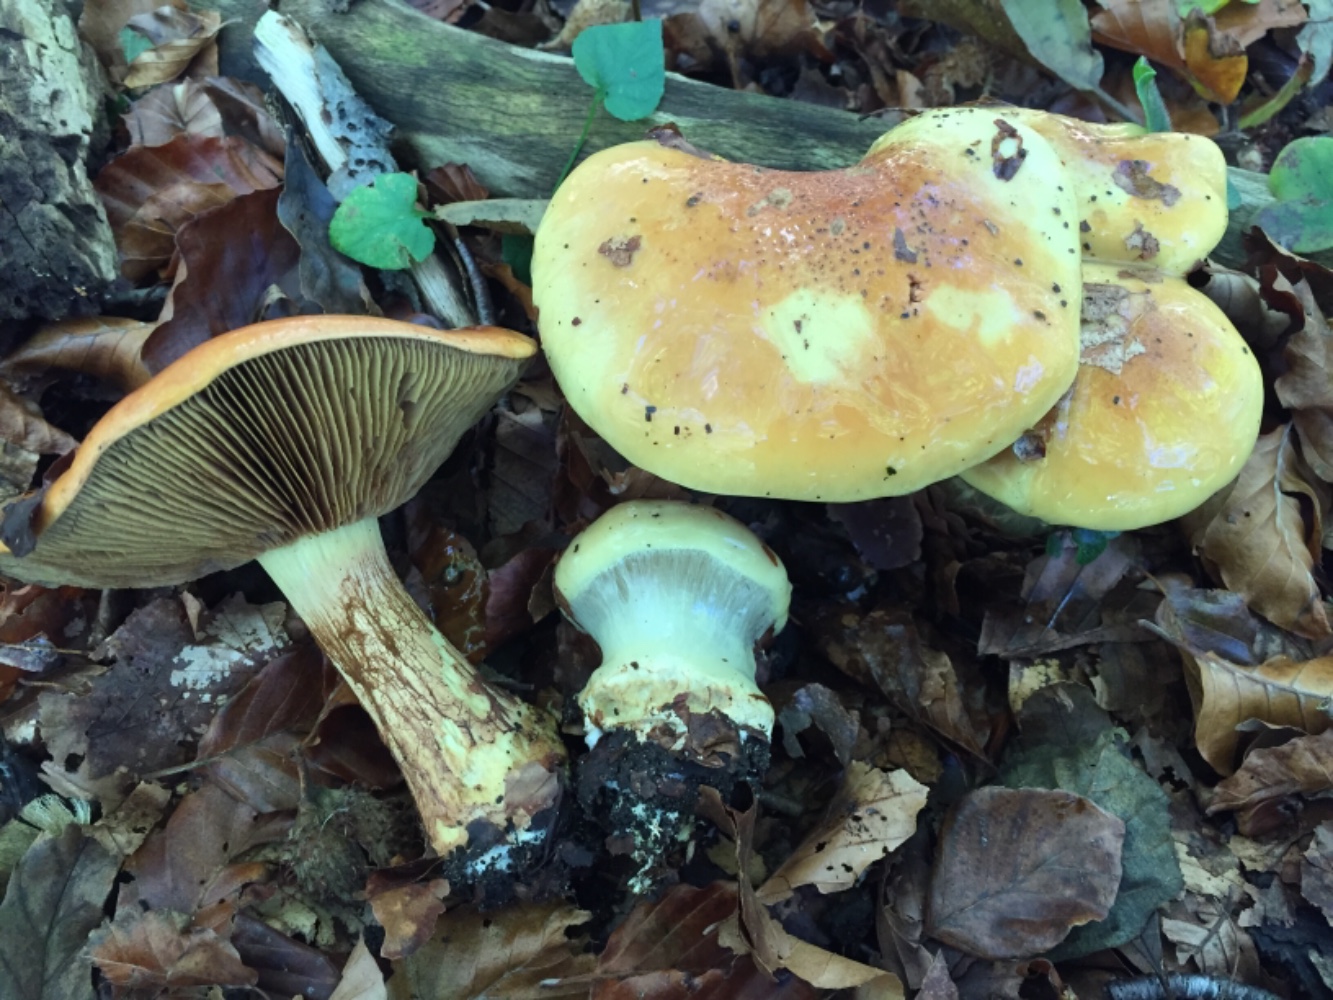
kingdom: Fungi
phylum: Basidiomycota
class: Agaricomycetes
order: Agaricales
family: Cortinariaceae
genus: Calonarius
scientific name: Calonarius elegantissimus
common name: orangegylden slørhat
